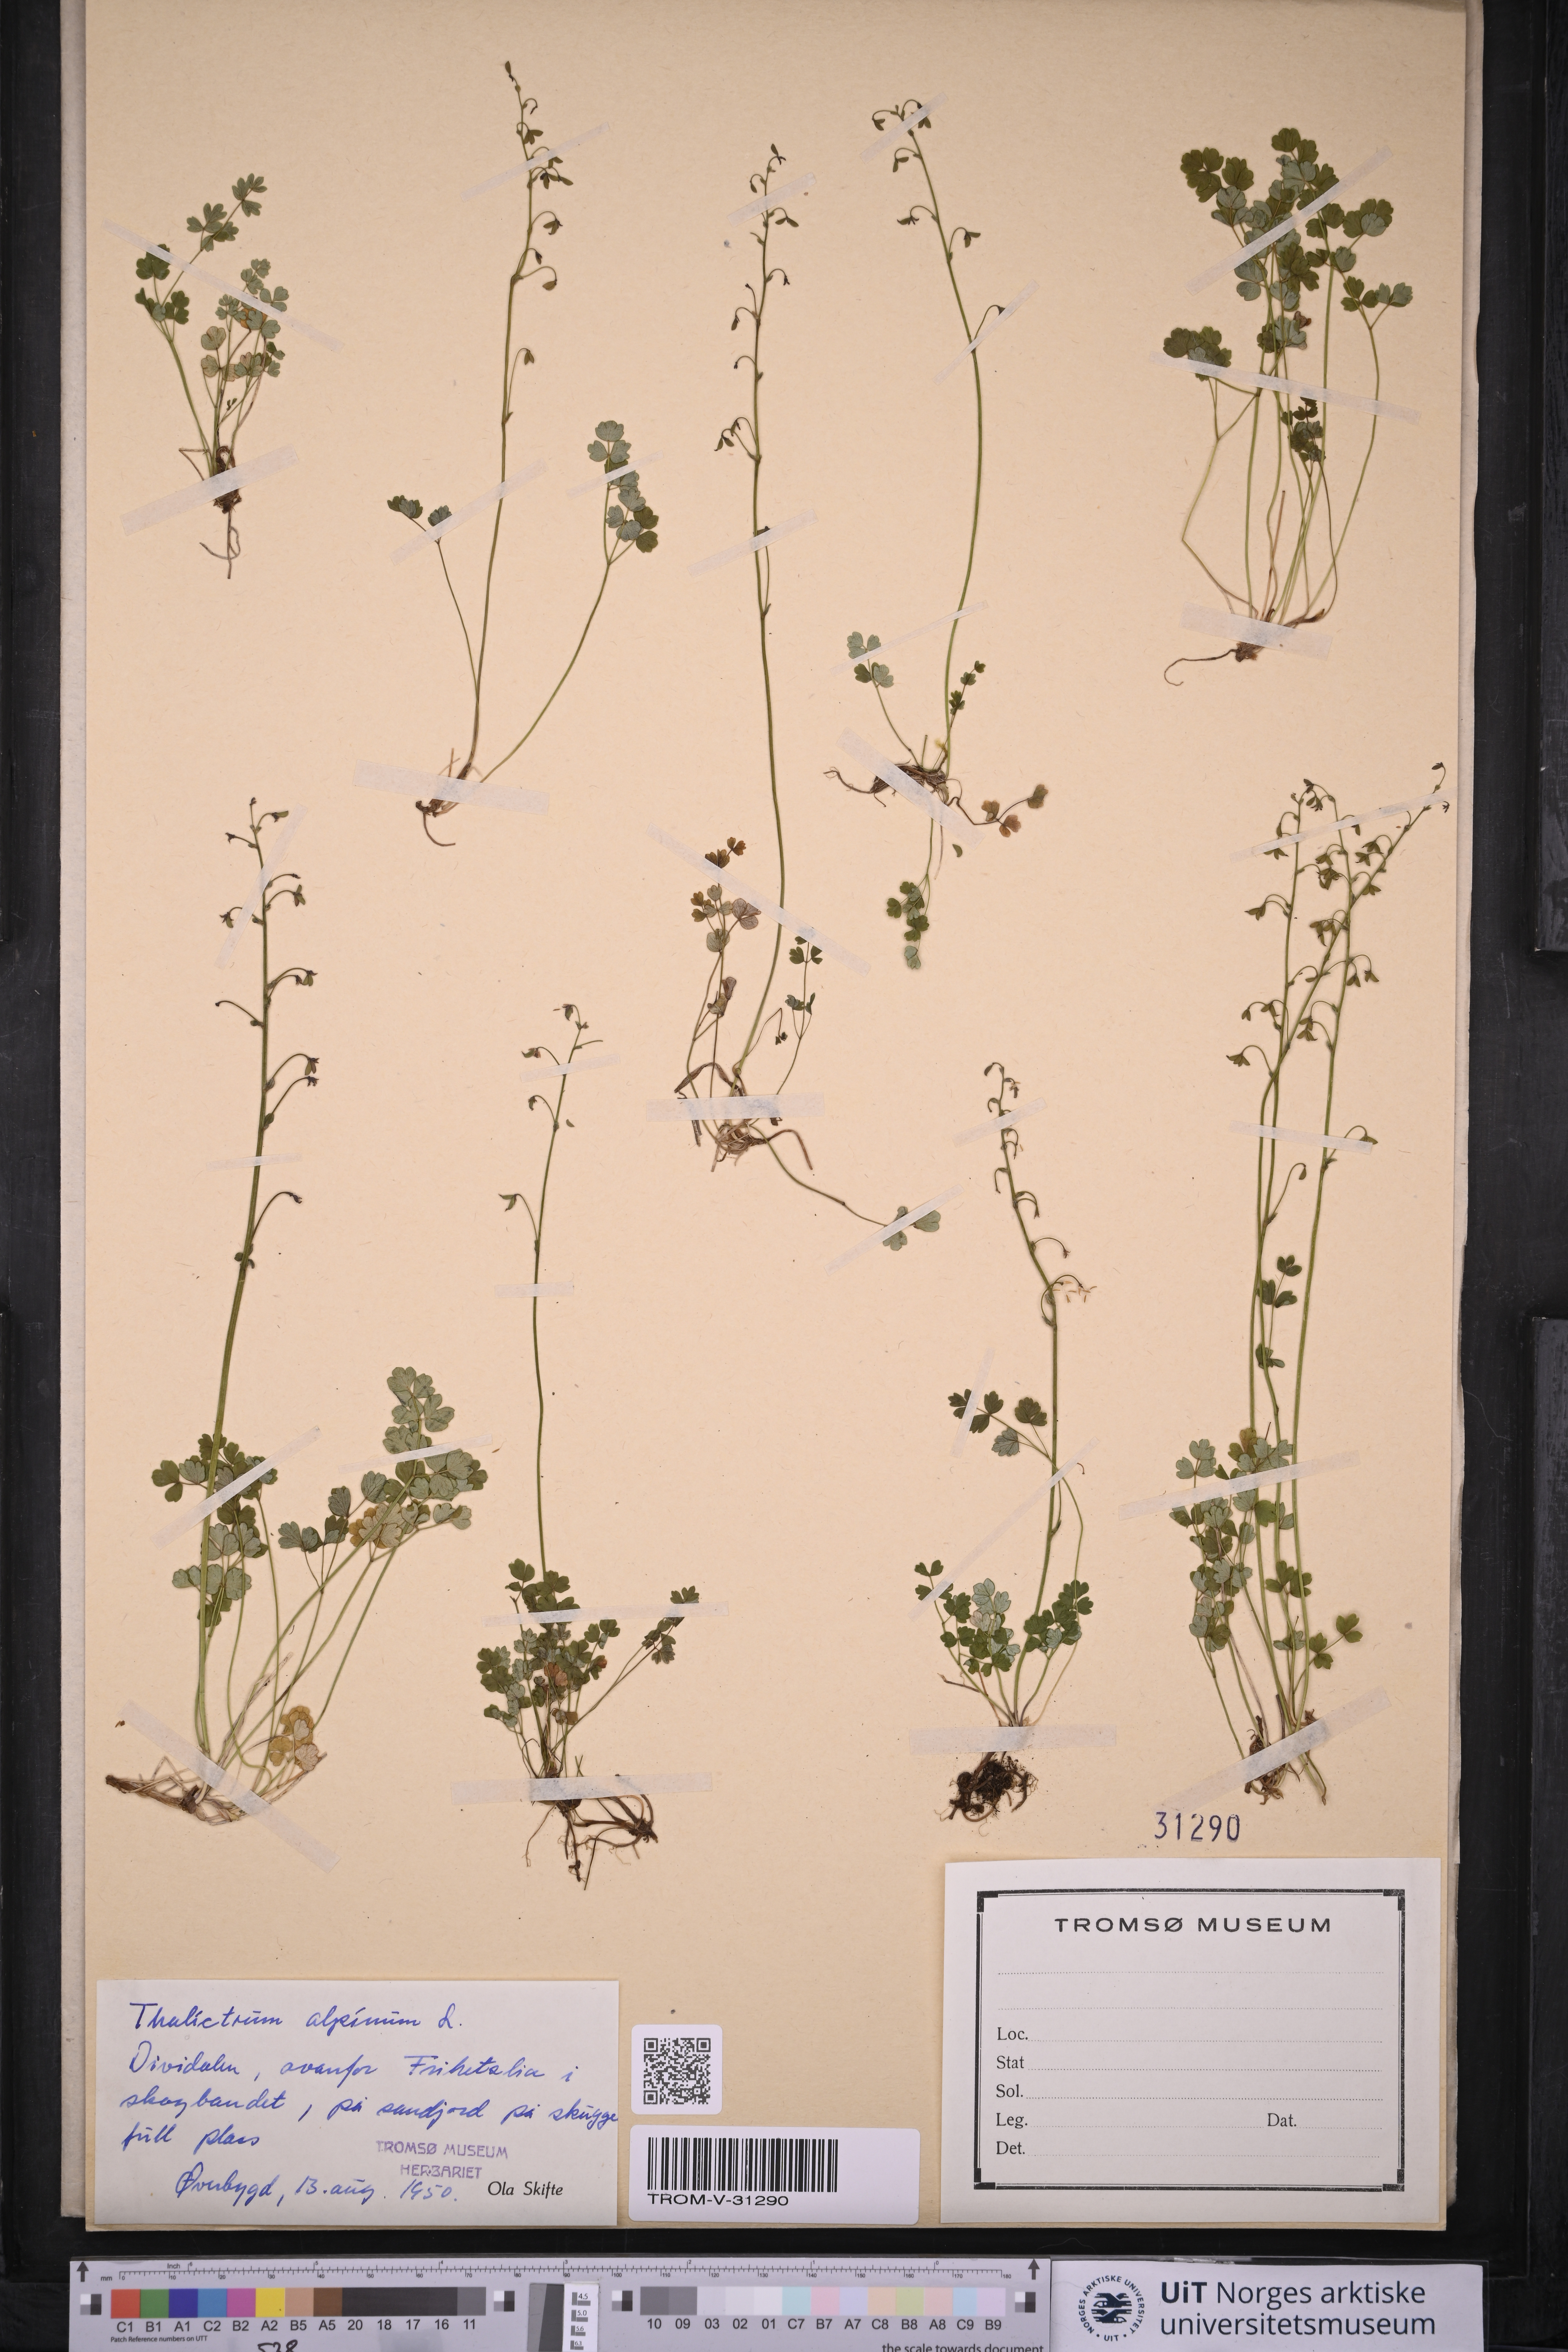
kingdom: Plantae
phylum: Tracheophyta
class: Magnoliopsida
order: Ranunculales
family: Ranunculaceae
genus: Thalictrum
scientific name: Thalictrum alpinum
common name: Alpine meadow-rue
